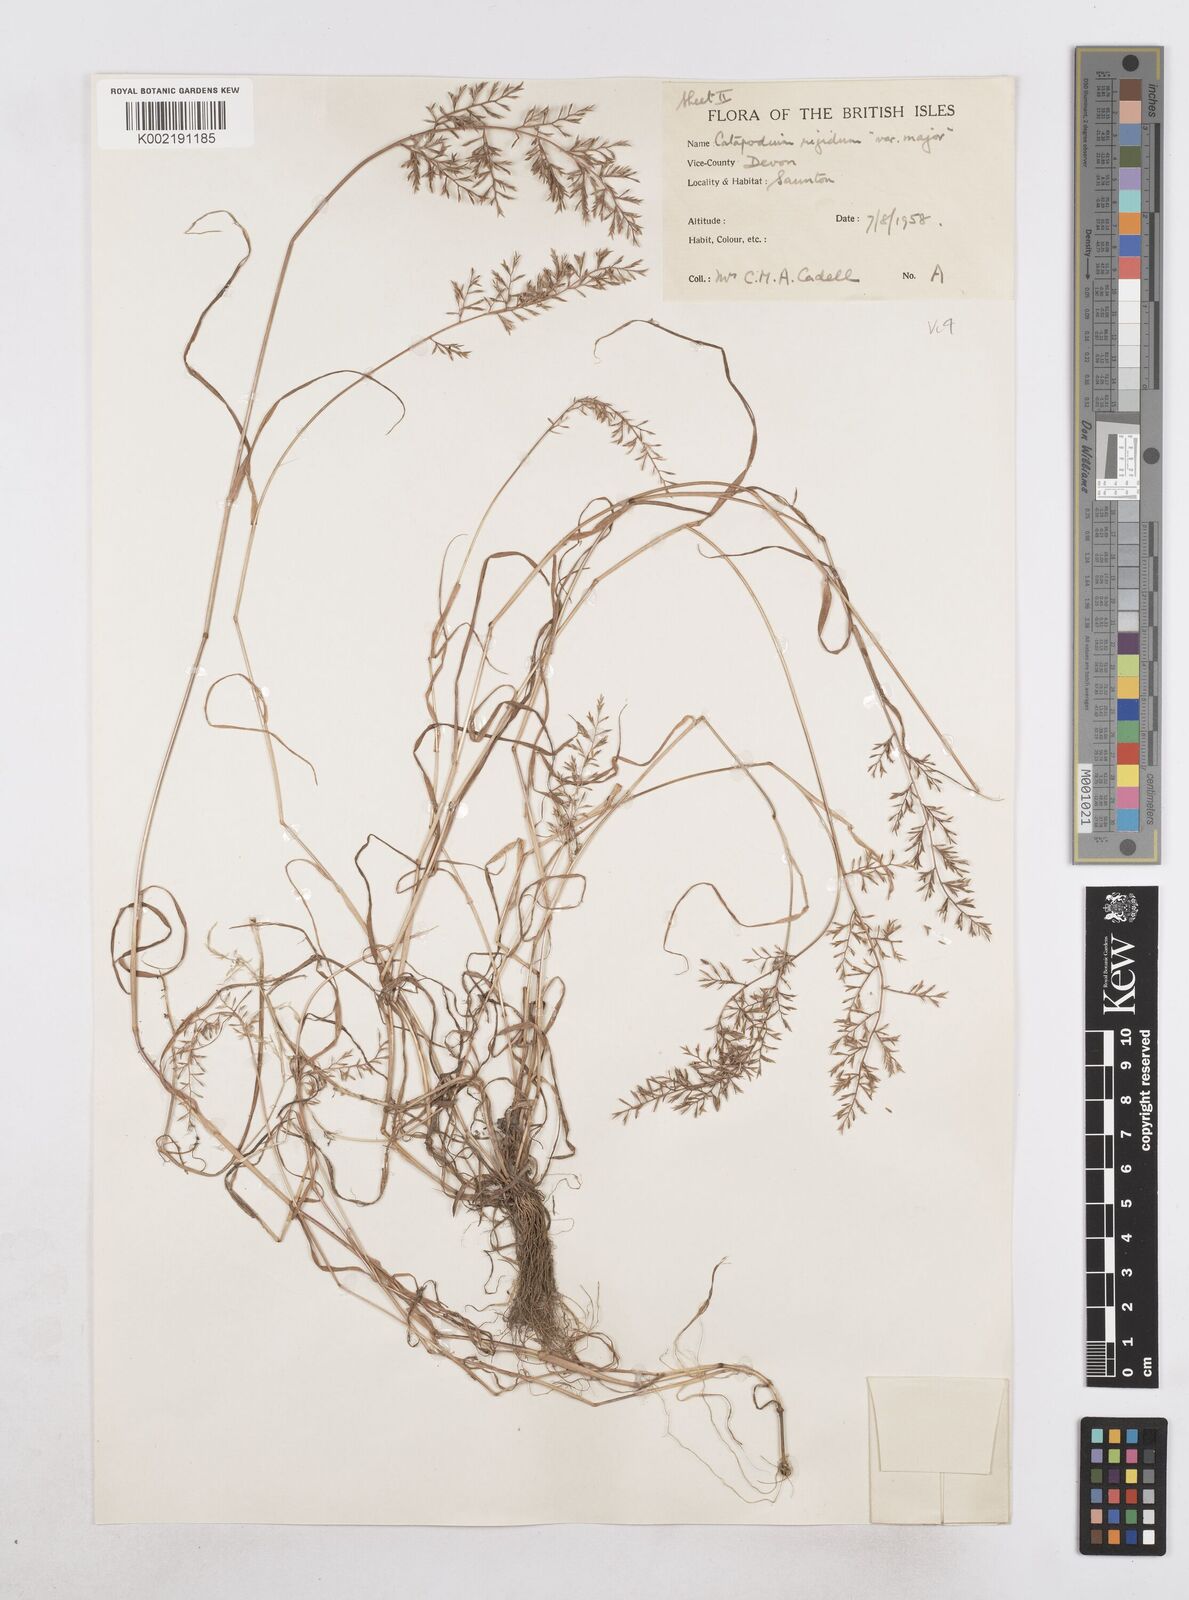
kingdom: Plantae
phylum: Tracheophyta
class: Liliopsida
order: Poales
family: Poaceae
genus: Catapodium
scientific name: Catapodium rigidum
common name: Fern-grass
